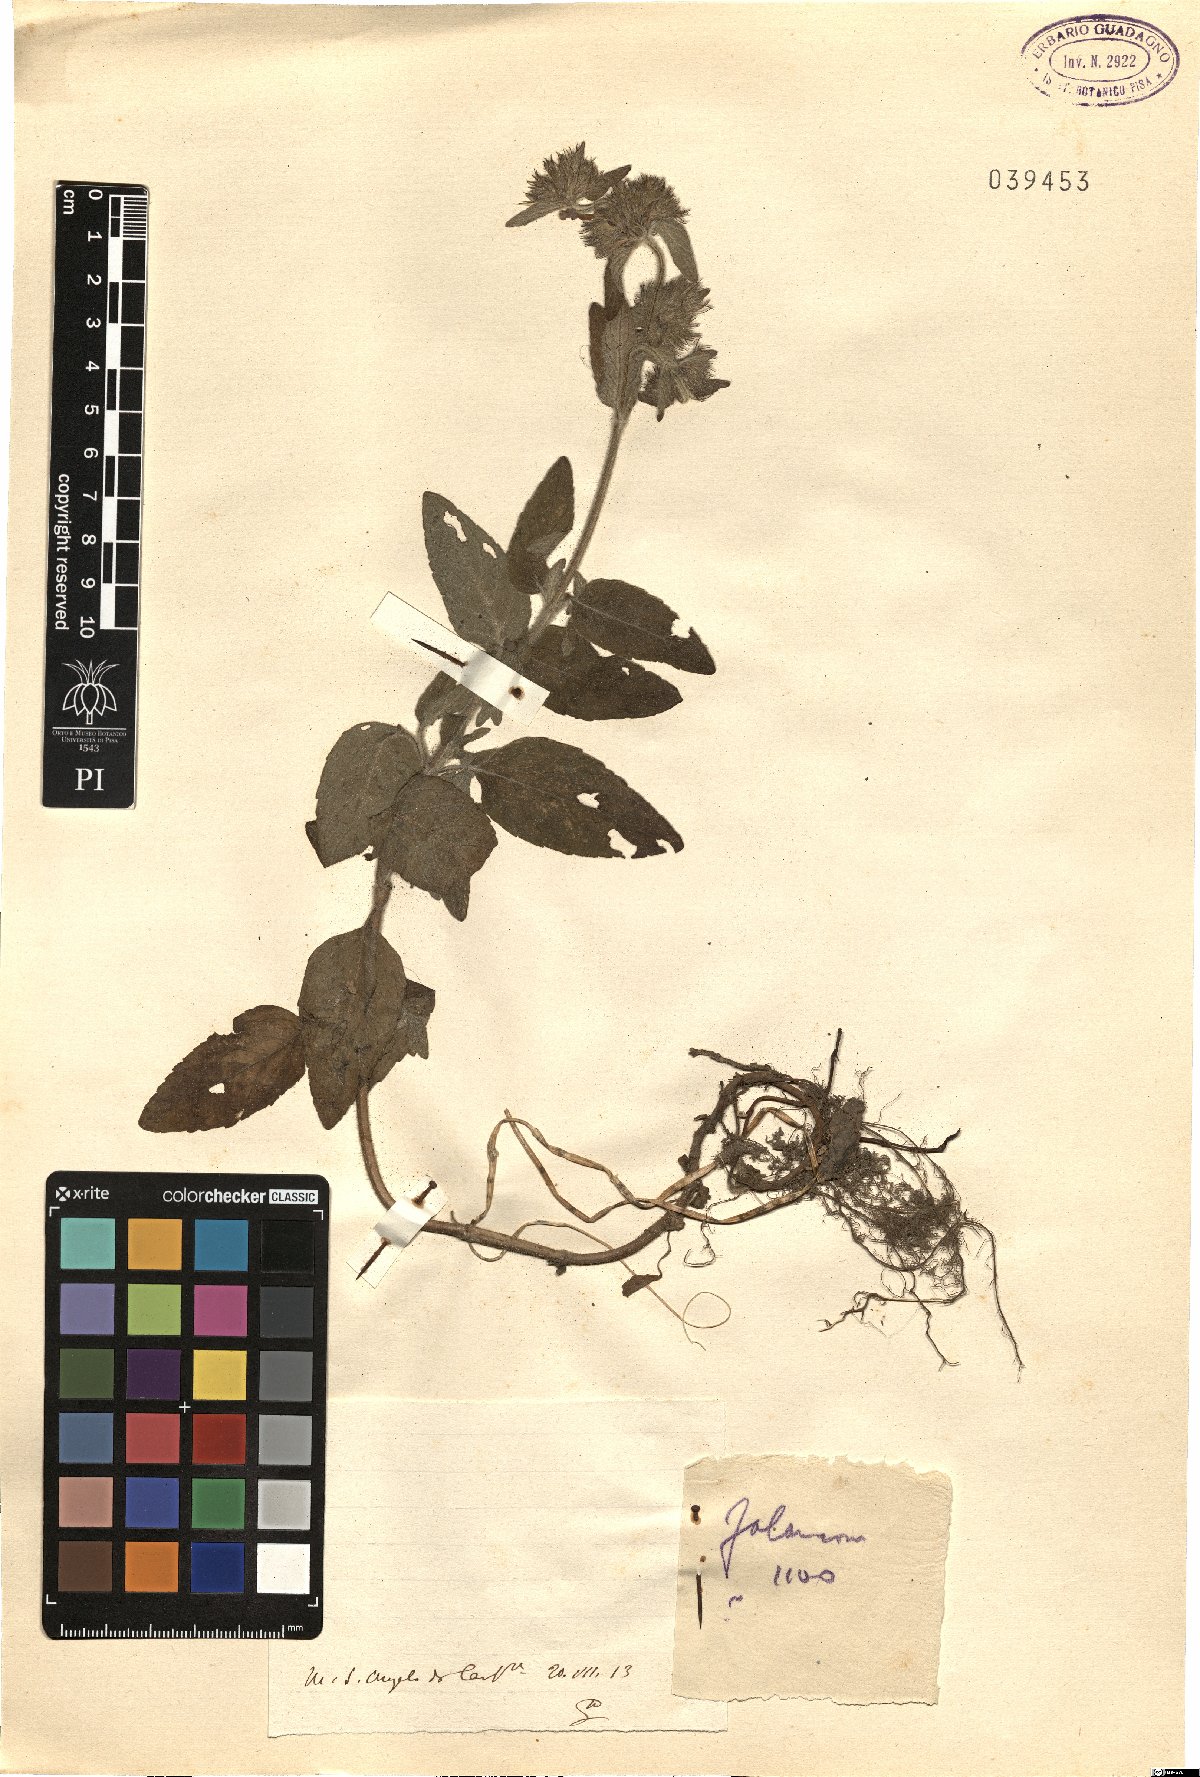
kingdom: Plantae
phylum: Tracheophyta
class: Magnoliopsida
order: Lamiales
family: Lamiaceae
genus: Calamintha
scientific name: Calamintha
